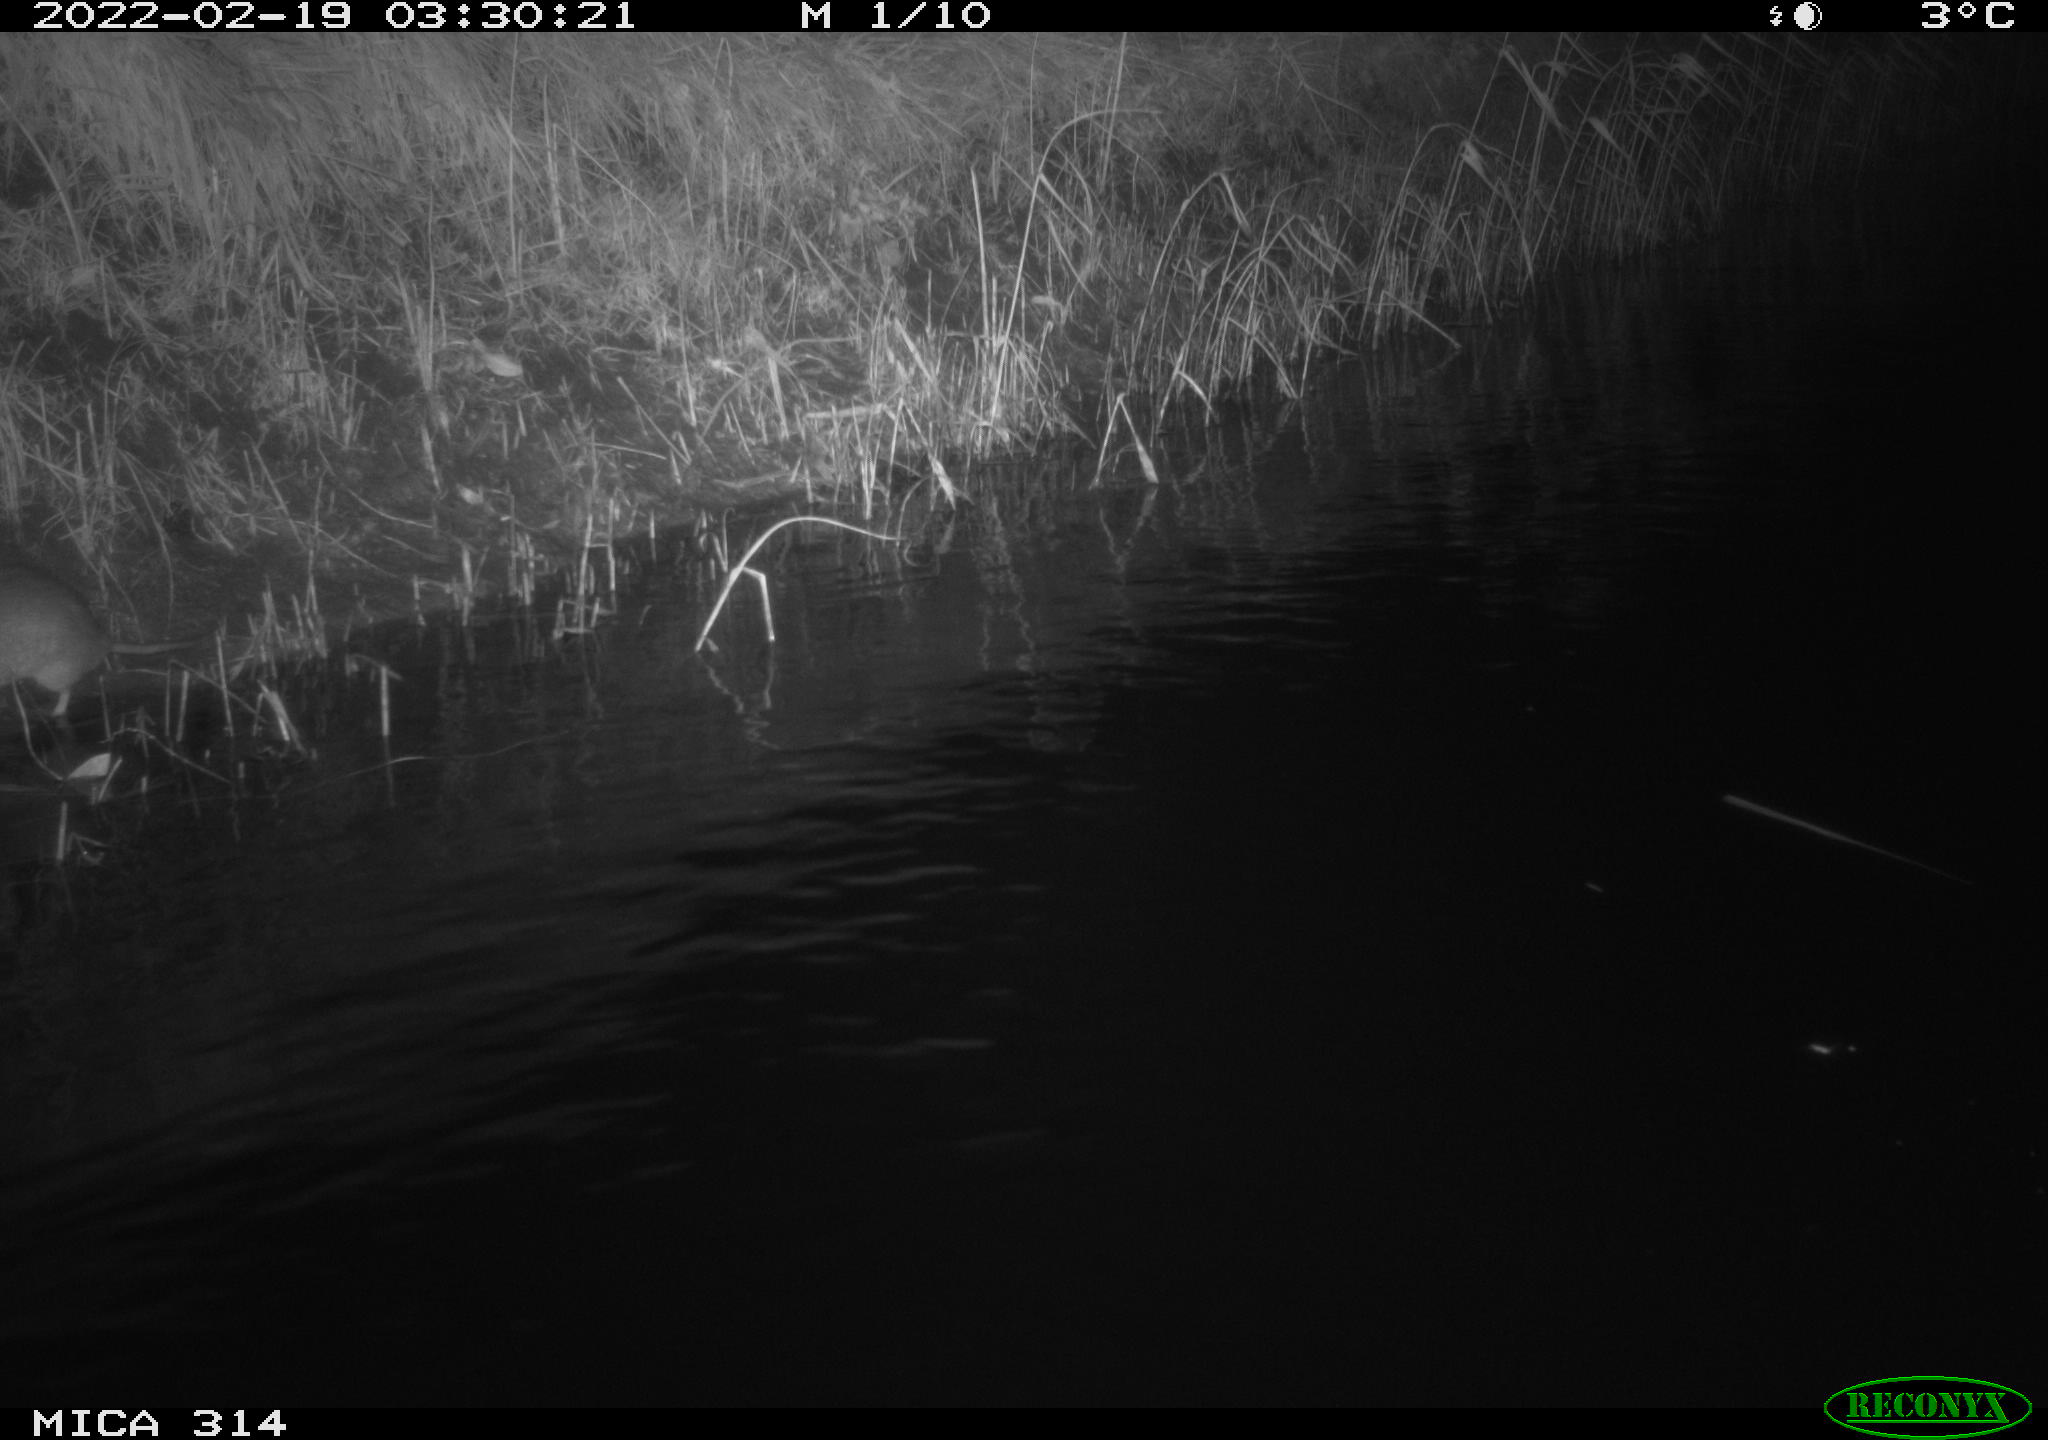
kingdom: Animalia
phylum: Chordata
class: Mammalia
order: Rodentia
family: Muridae
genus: Rattus
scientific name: Rattus norvegicus
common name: Brown rat
